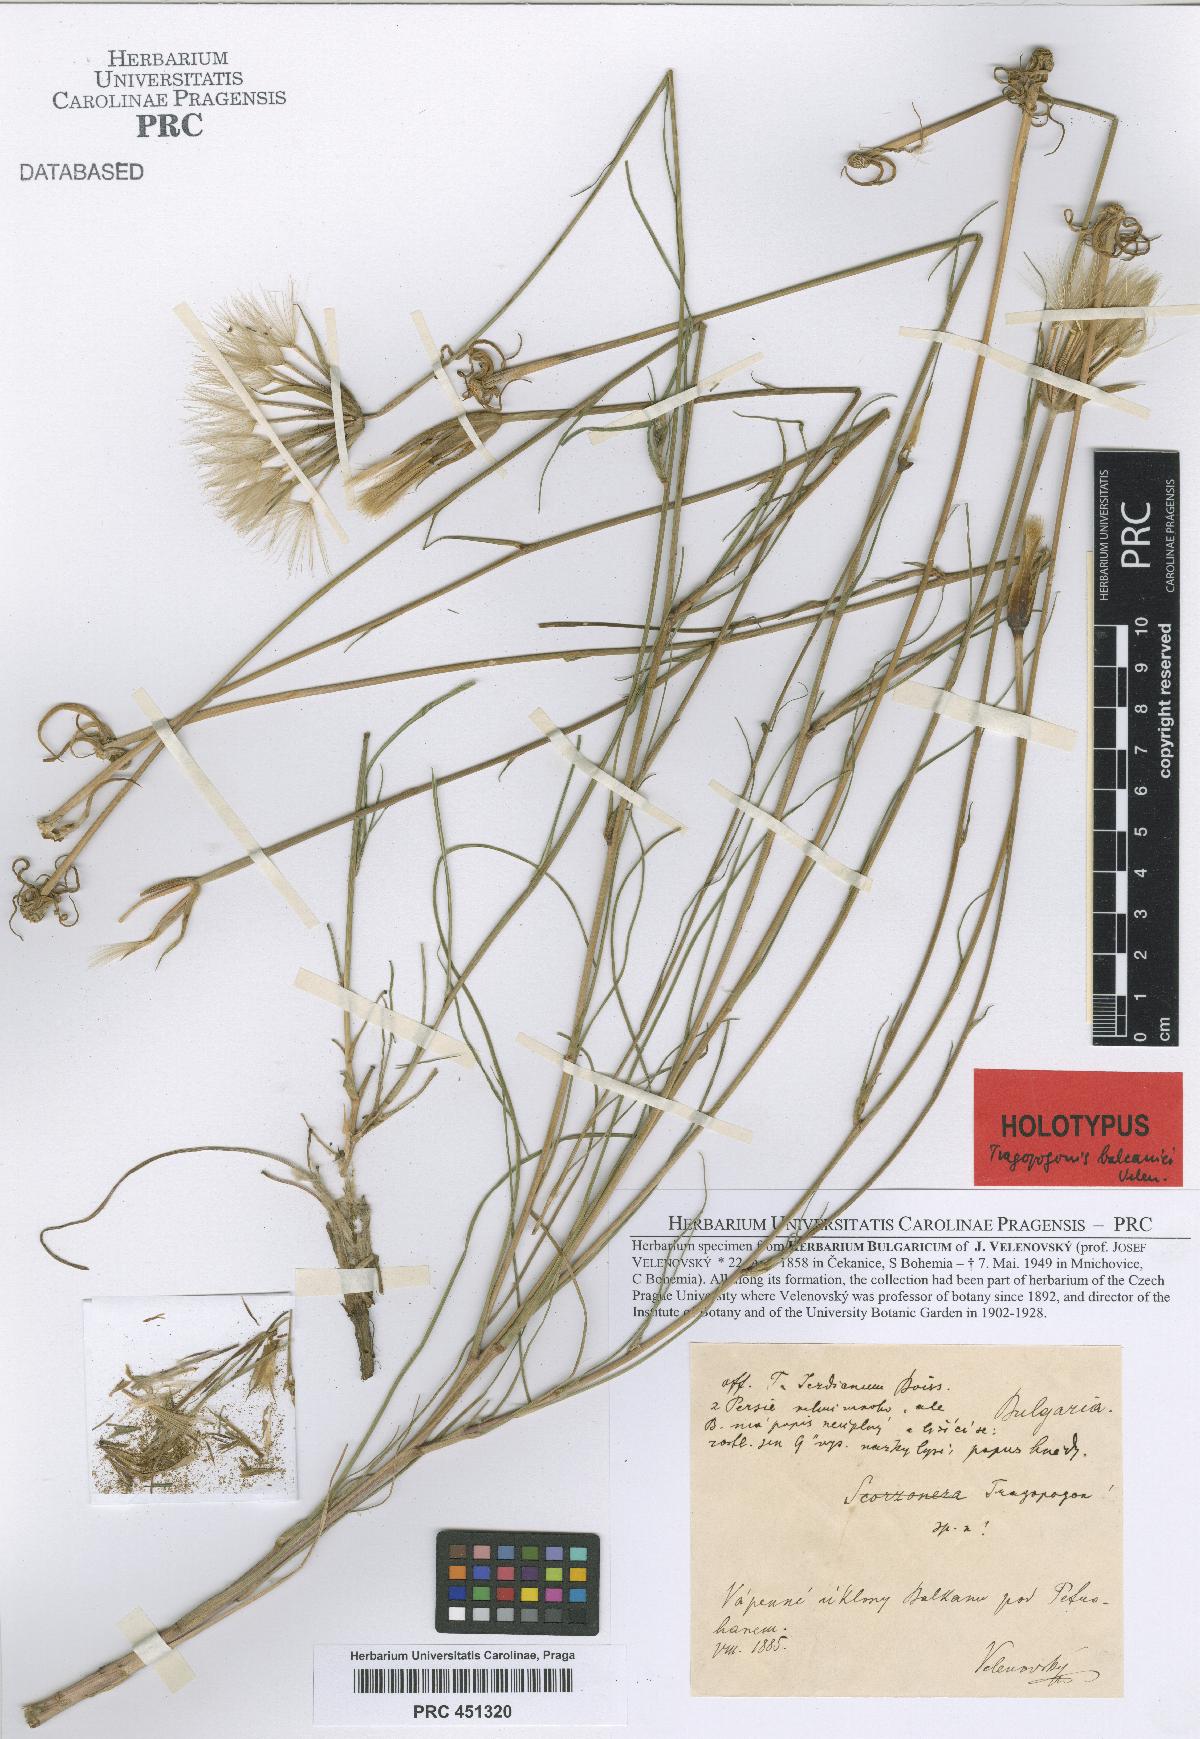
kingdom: Plantae
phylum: Tracheophyta
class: Magnoliopsida
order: Asterales
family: Asteraceae
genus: Tragopogon
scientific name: Tragopogon balcanicus
